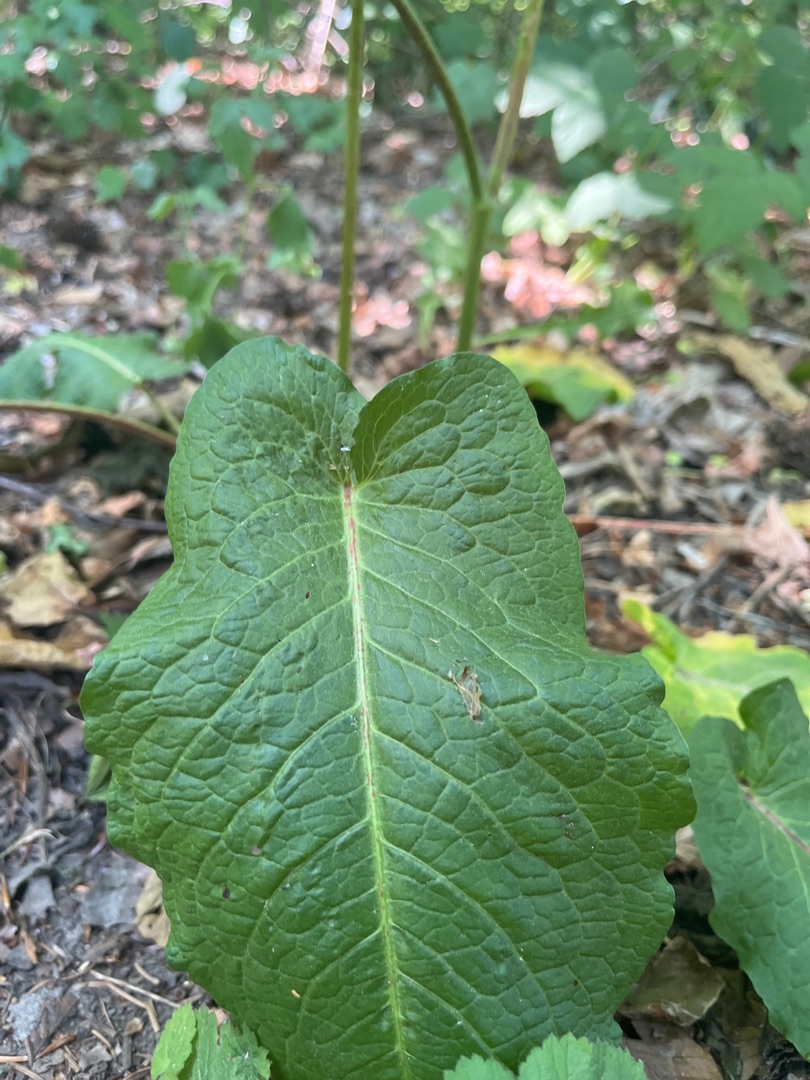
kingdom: Plantae
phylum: Tracheophyta
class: Magnoliopsida
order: Caryophyllales
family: Polygonaceae
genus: Rumex
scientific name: Rumex obtusifolius
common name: Butbladet skræppe
